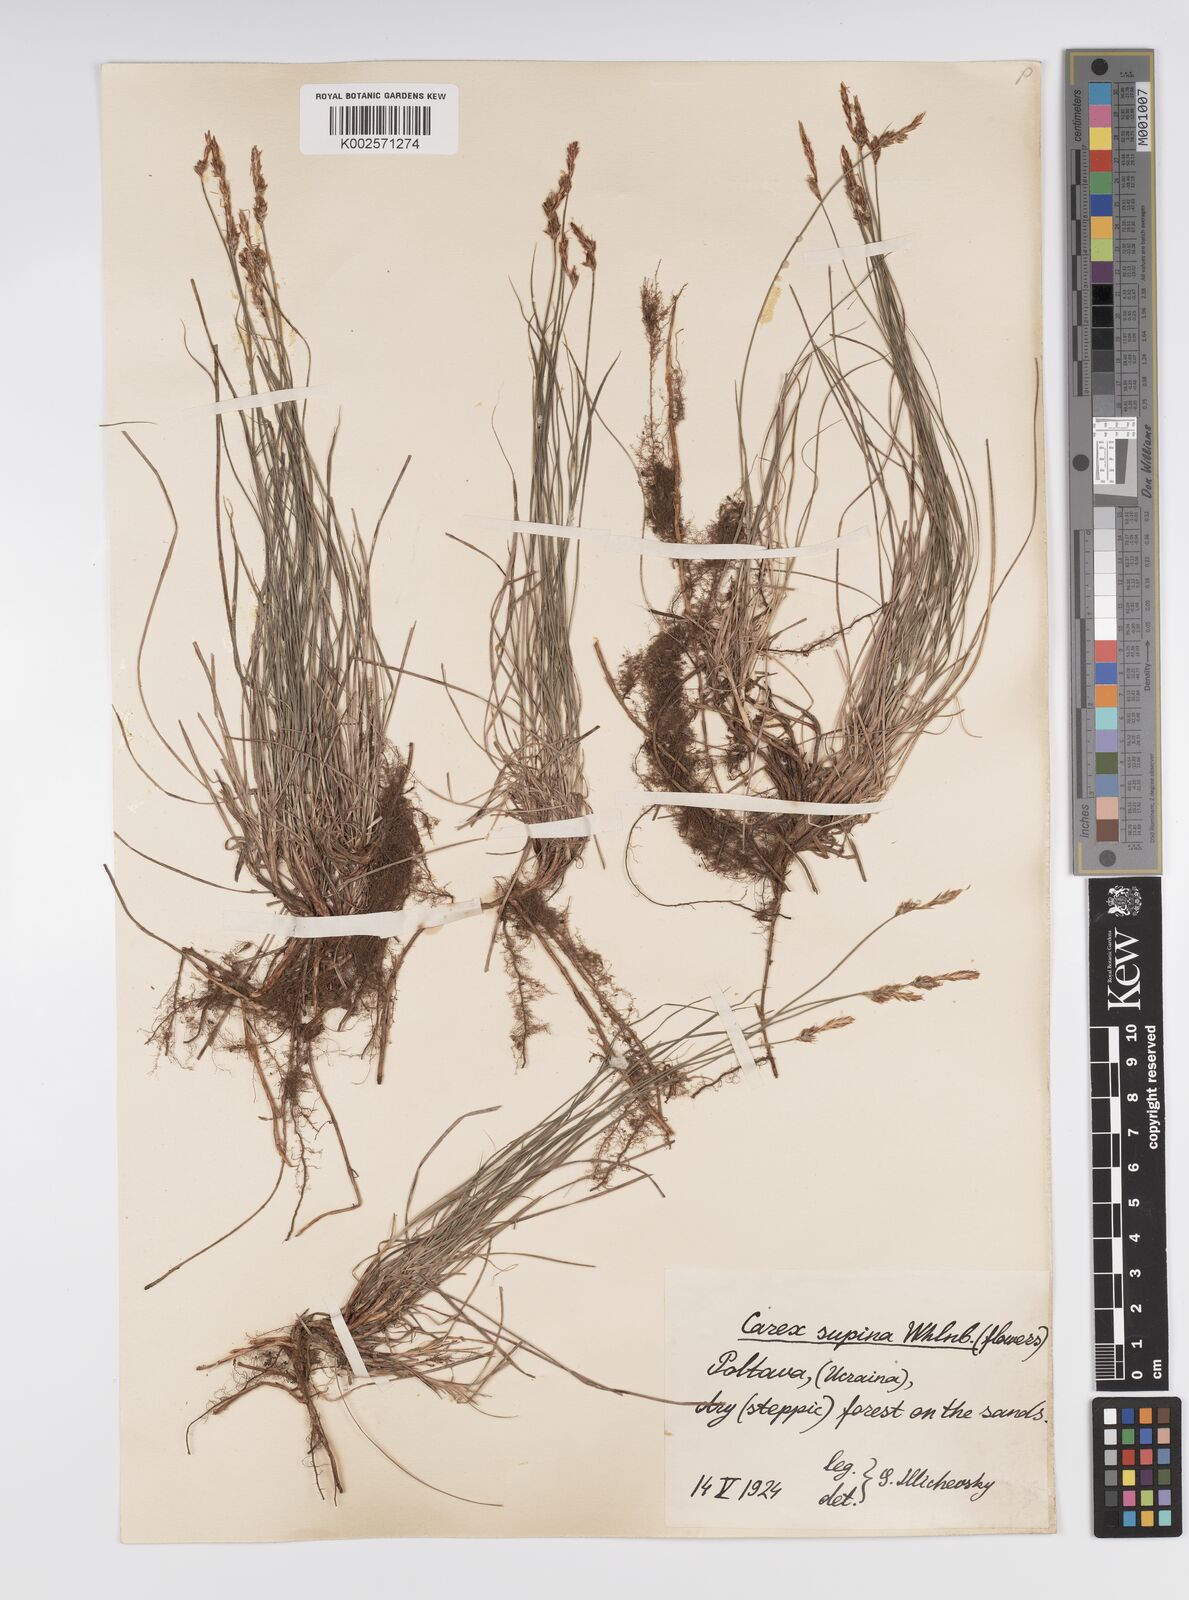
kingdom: Plantae
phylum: Tracheophyta
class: Liliopsida
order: Poales
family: Cyperaceae
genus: Carex
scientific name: Carex supina
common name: Lying-back sedge
